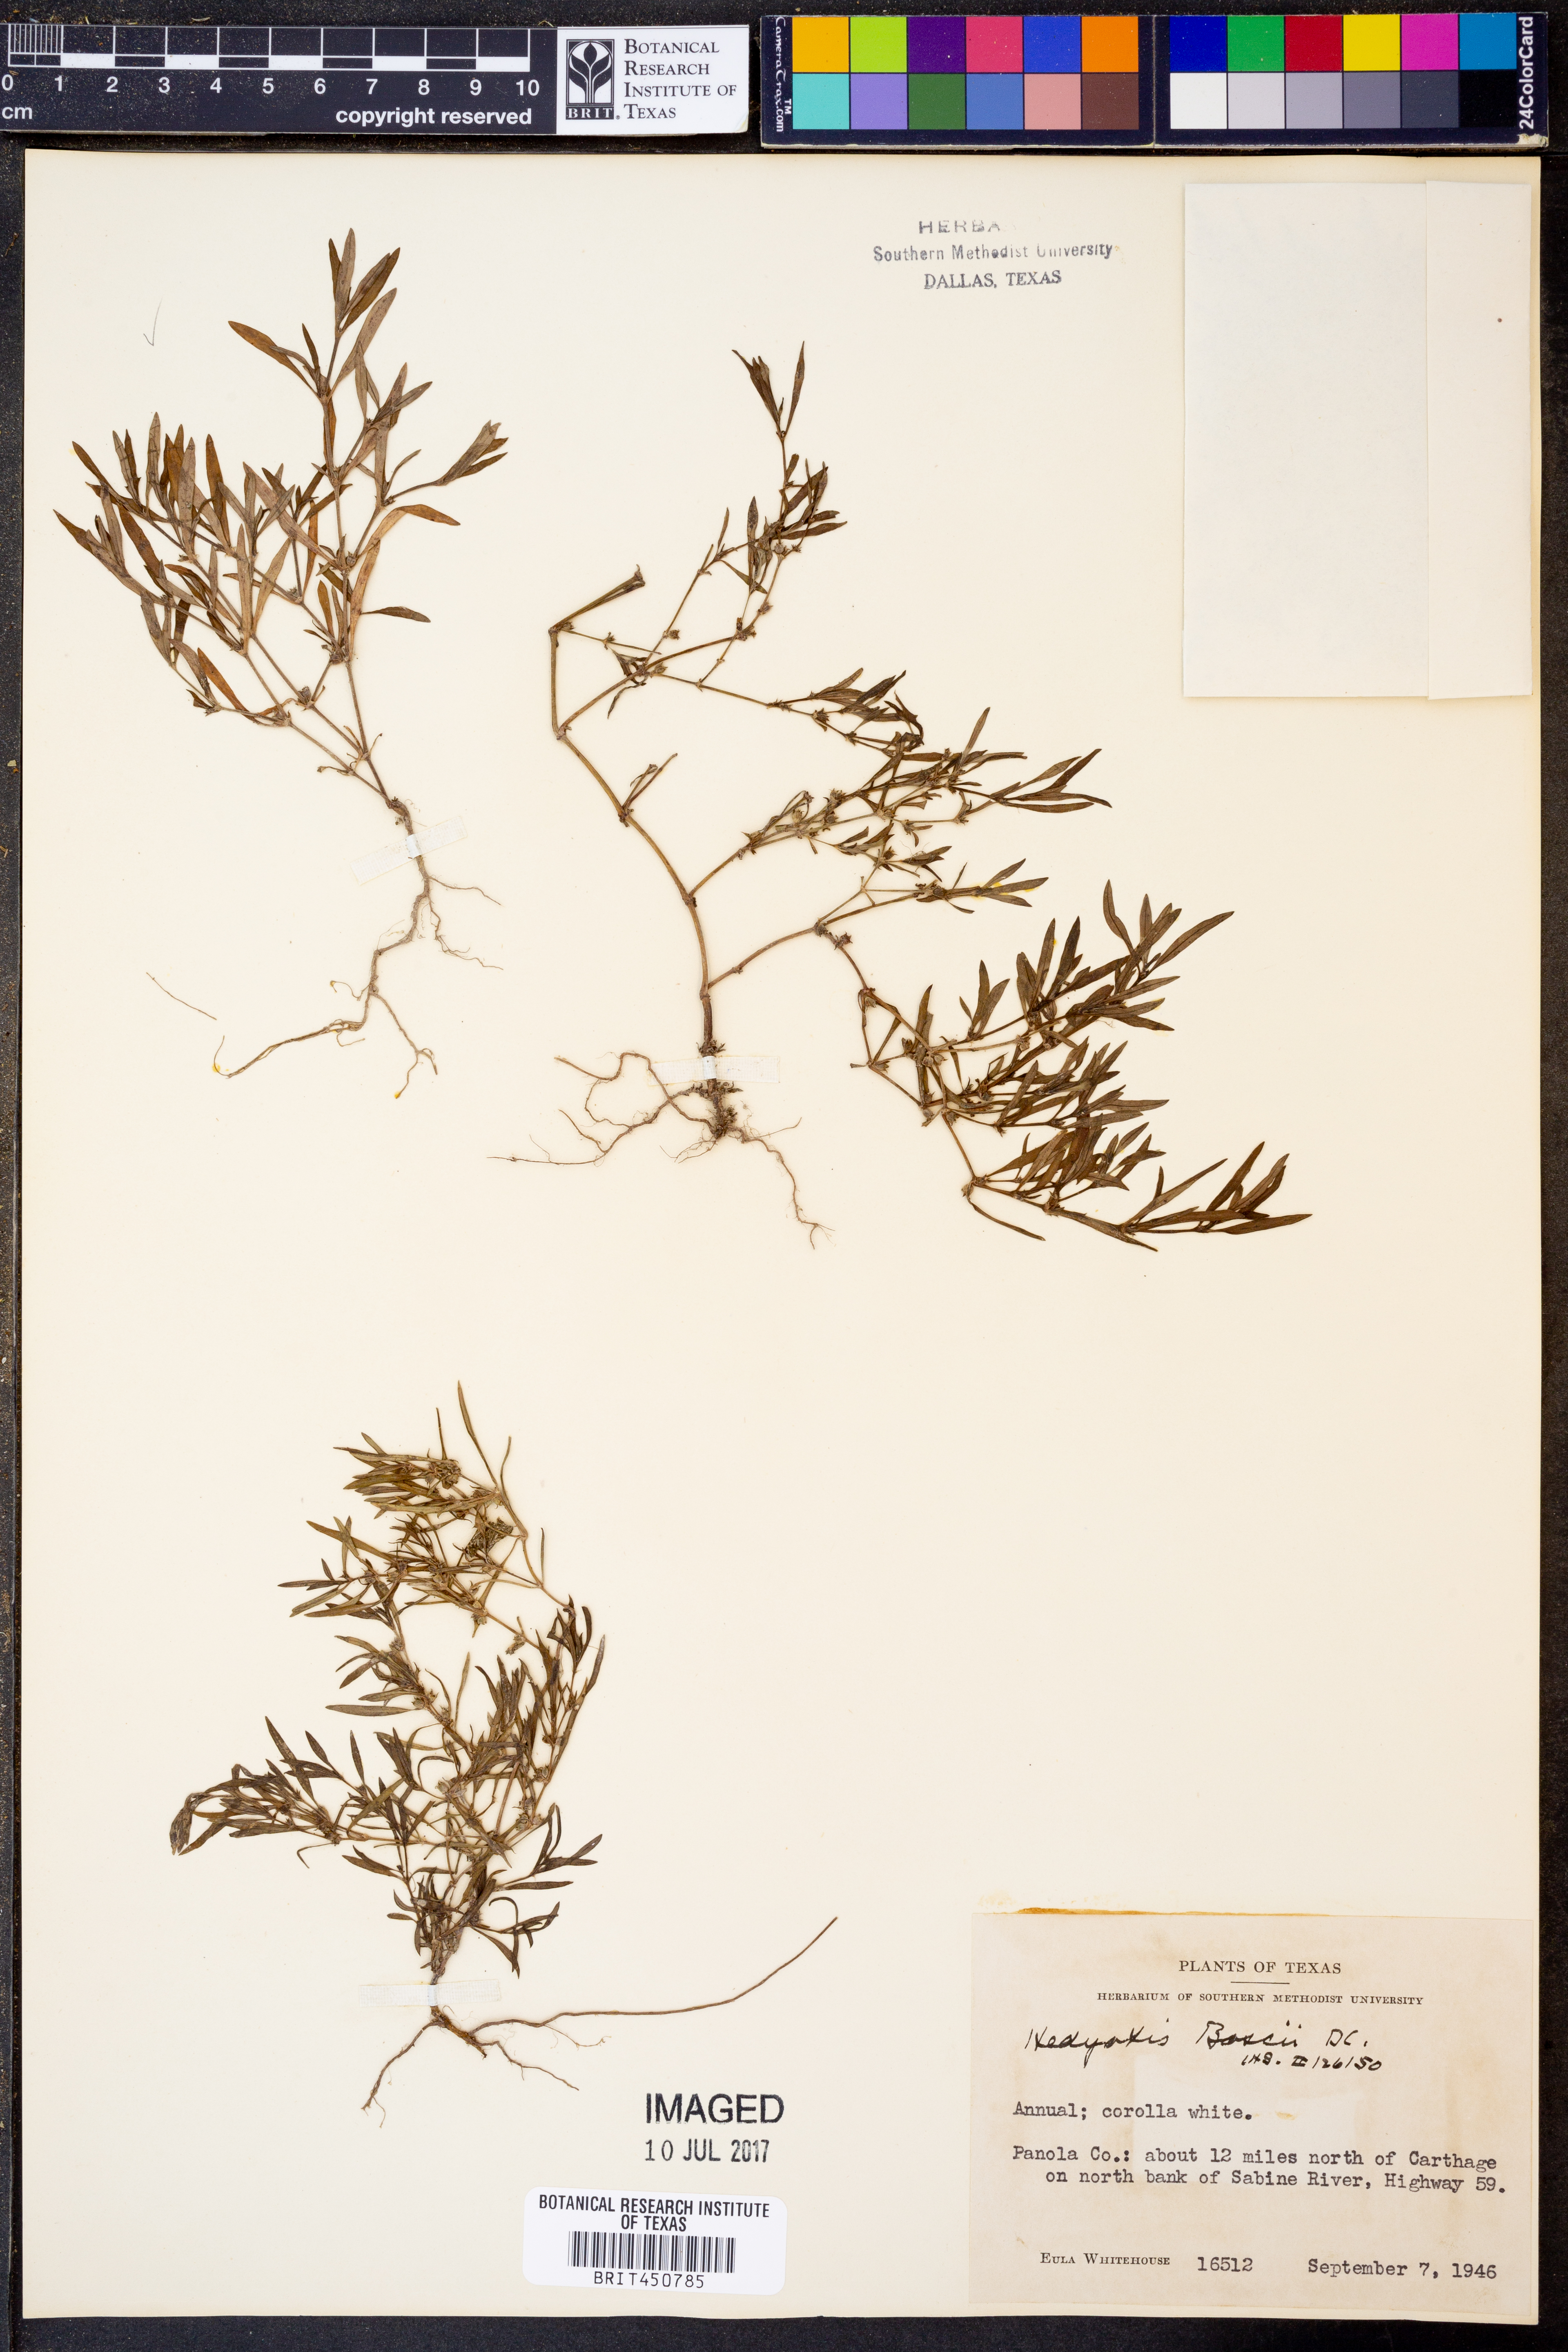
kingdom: Plantae
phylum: Tracheophyta
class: Magnoliopsida
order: Gentianales
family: Rubiaceae
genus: Oldenlandia
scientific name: Oldenlandia boscii
